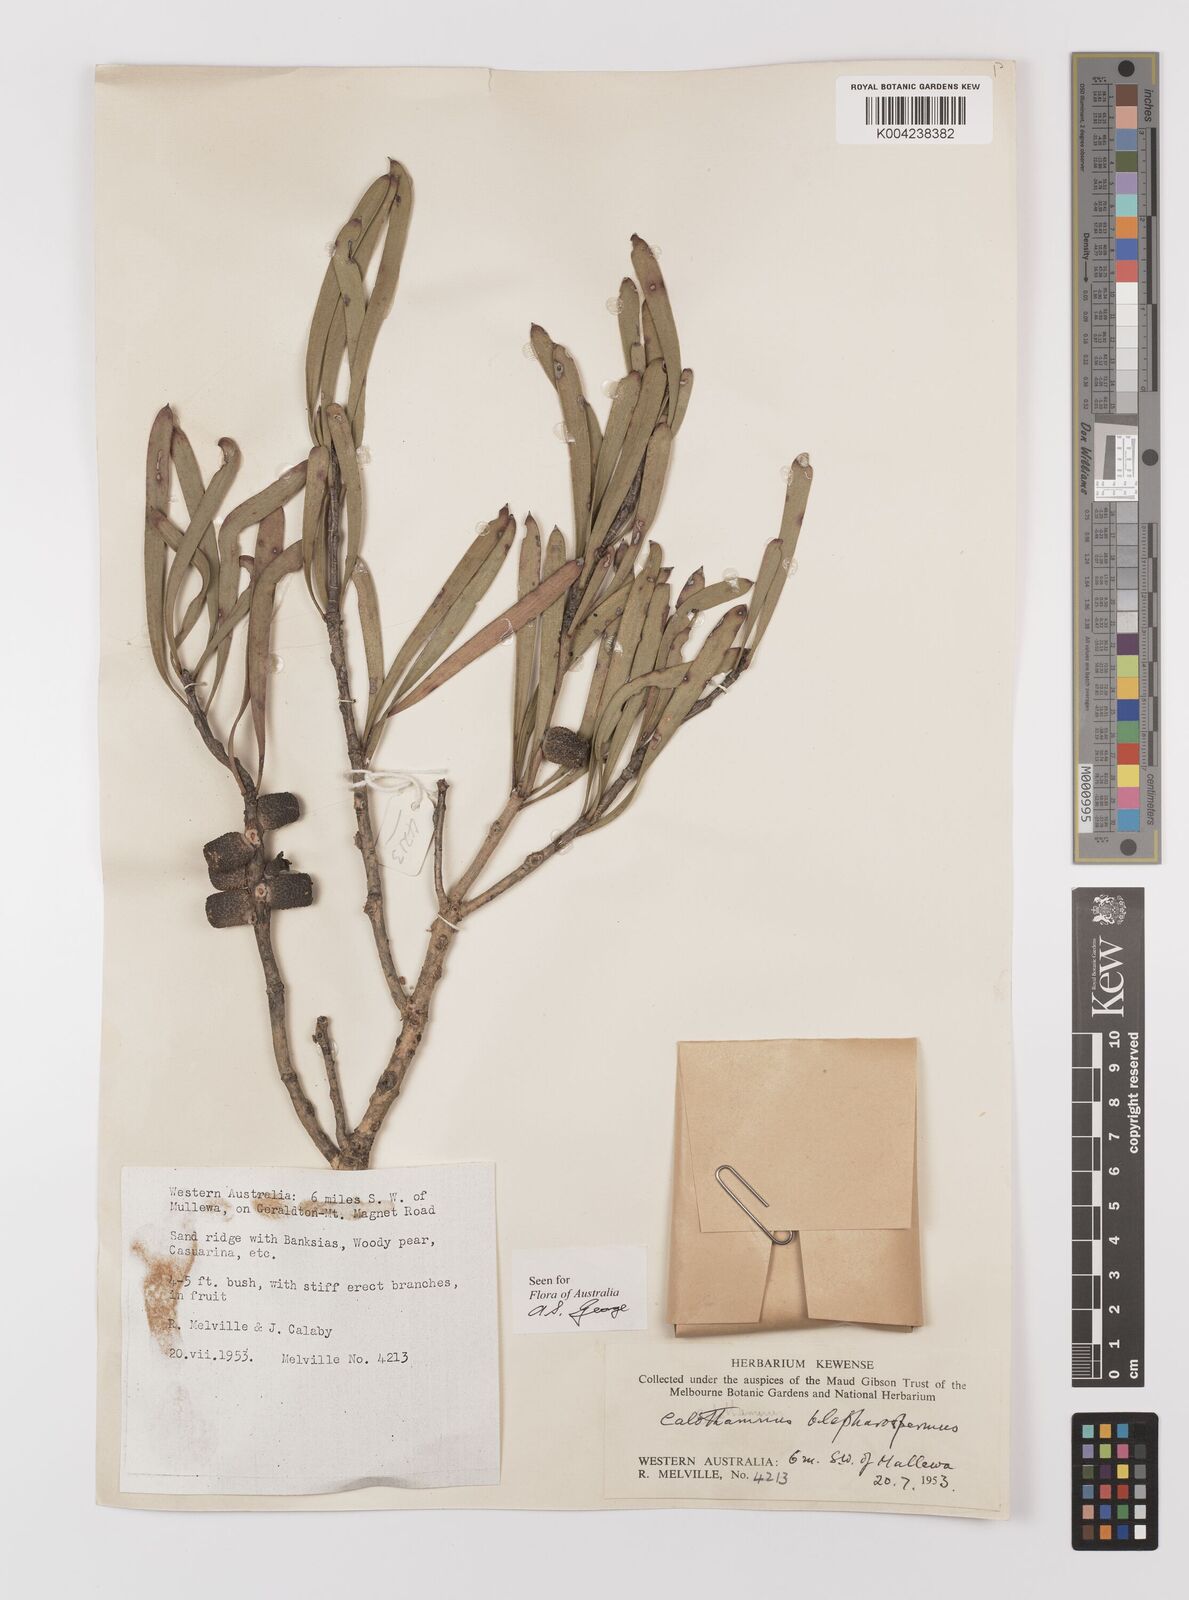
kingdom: Plantae
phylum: Tracheophyta
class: Magnoliopsida
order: Myrtales
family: Myrtaceae
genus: Melaleuca
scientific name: Melaleuca blepharosperma
